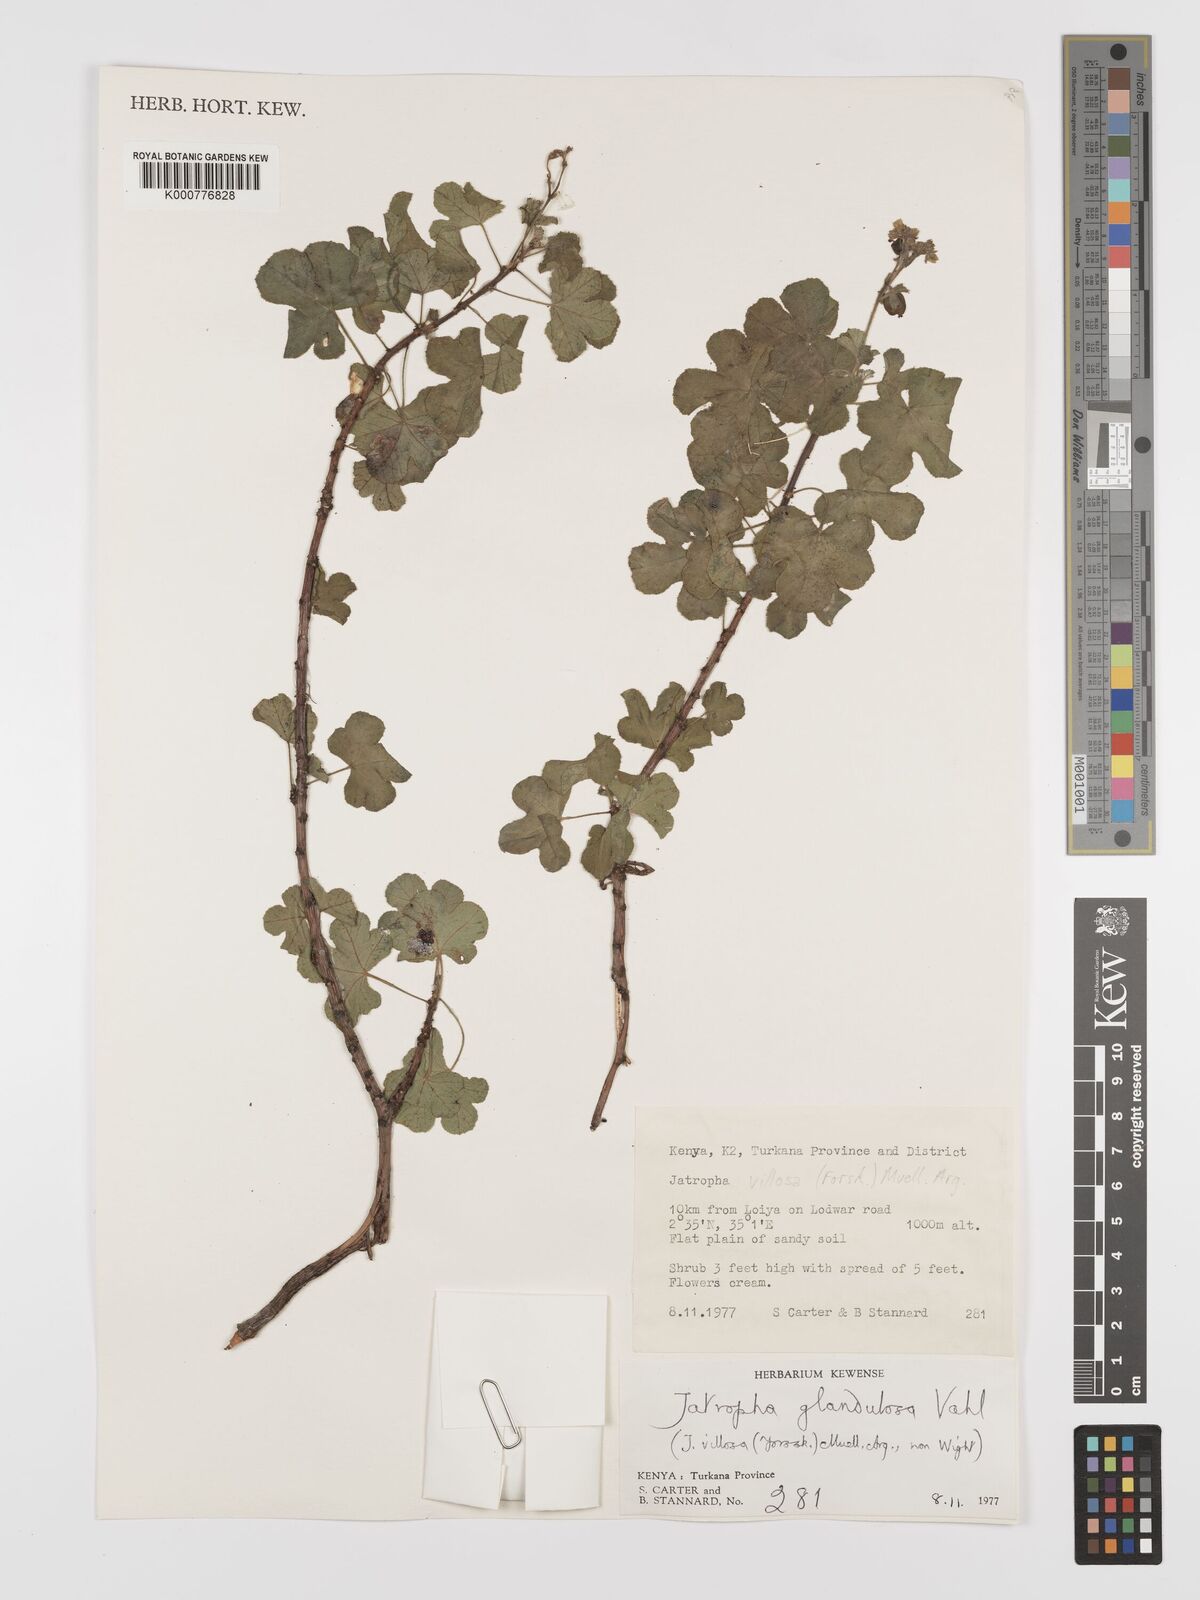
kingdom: Plantae
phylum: Tracheophyta
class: Magnoliopsida
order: Malpighiales
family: Euphorbiaceae
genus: Jatropha
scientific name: Jatropha pelargoniifolia
